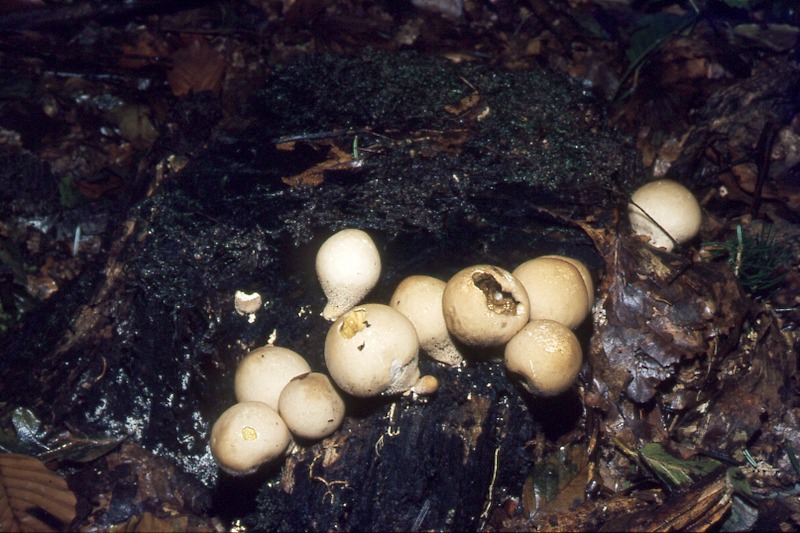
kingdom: Fungi
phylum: Basidiomycota
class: Agaricomycetes
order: Agaricales
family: Lycoperdaceae
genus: Apioperdon
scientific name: Apioperdon pyriforme
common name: Pear-shaped puffball
